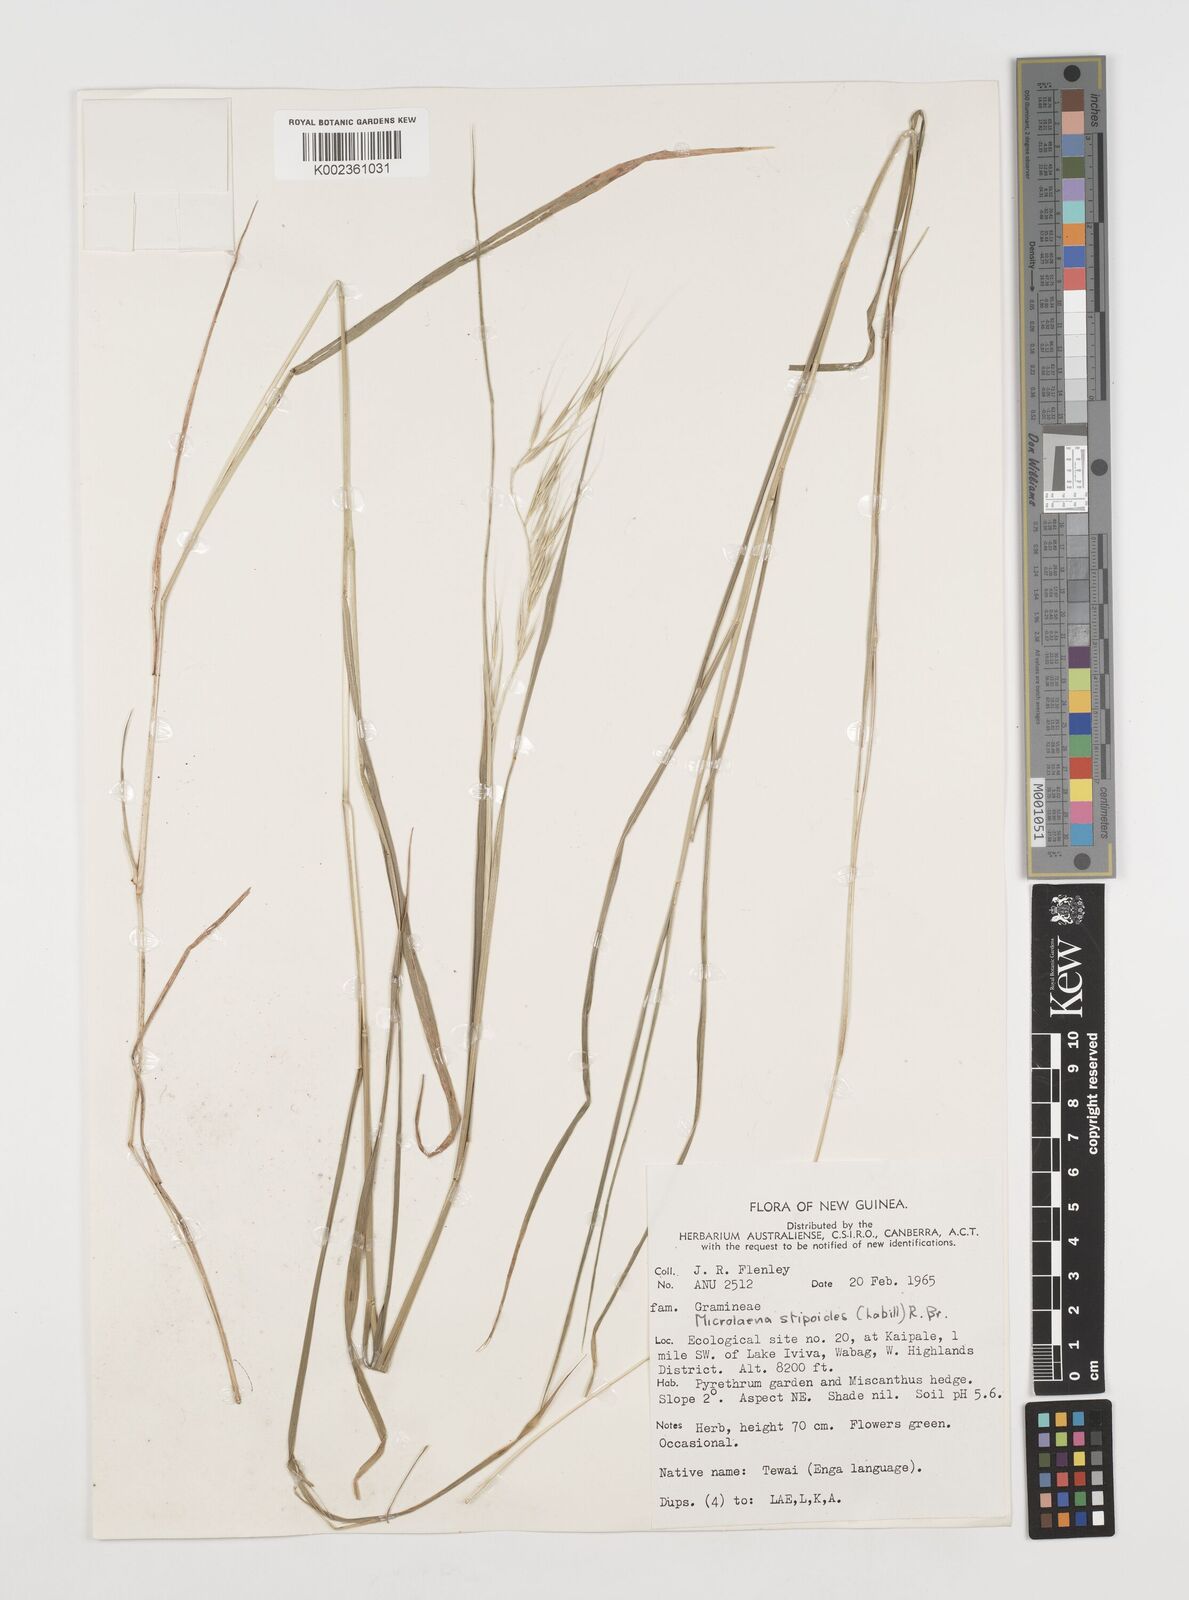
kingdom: Plantae
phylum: Tracheophyta
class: Liliopsida
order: Poales
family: Poaceae
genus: Microlaena
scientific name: Microlaena stipoides
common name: Meadow ricegrass
